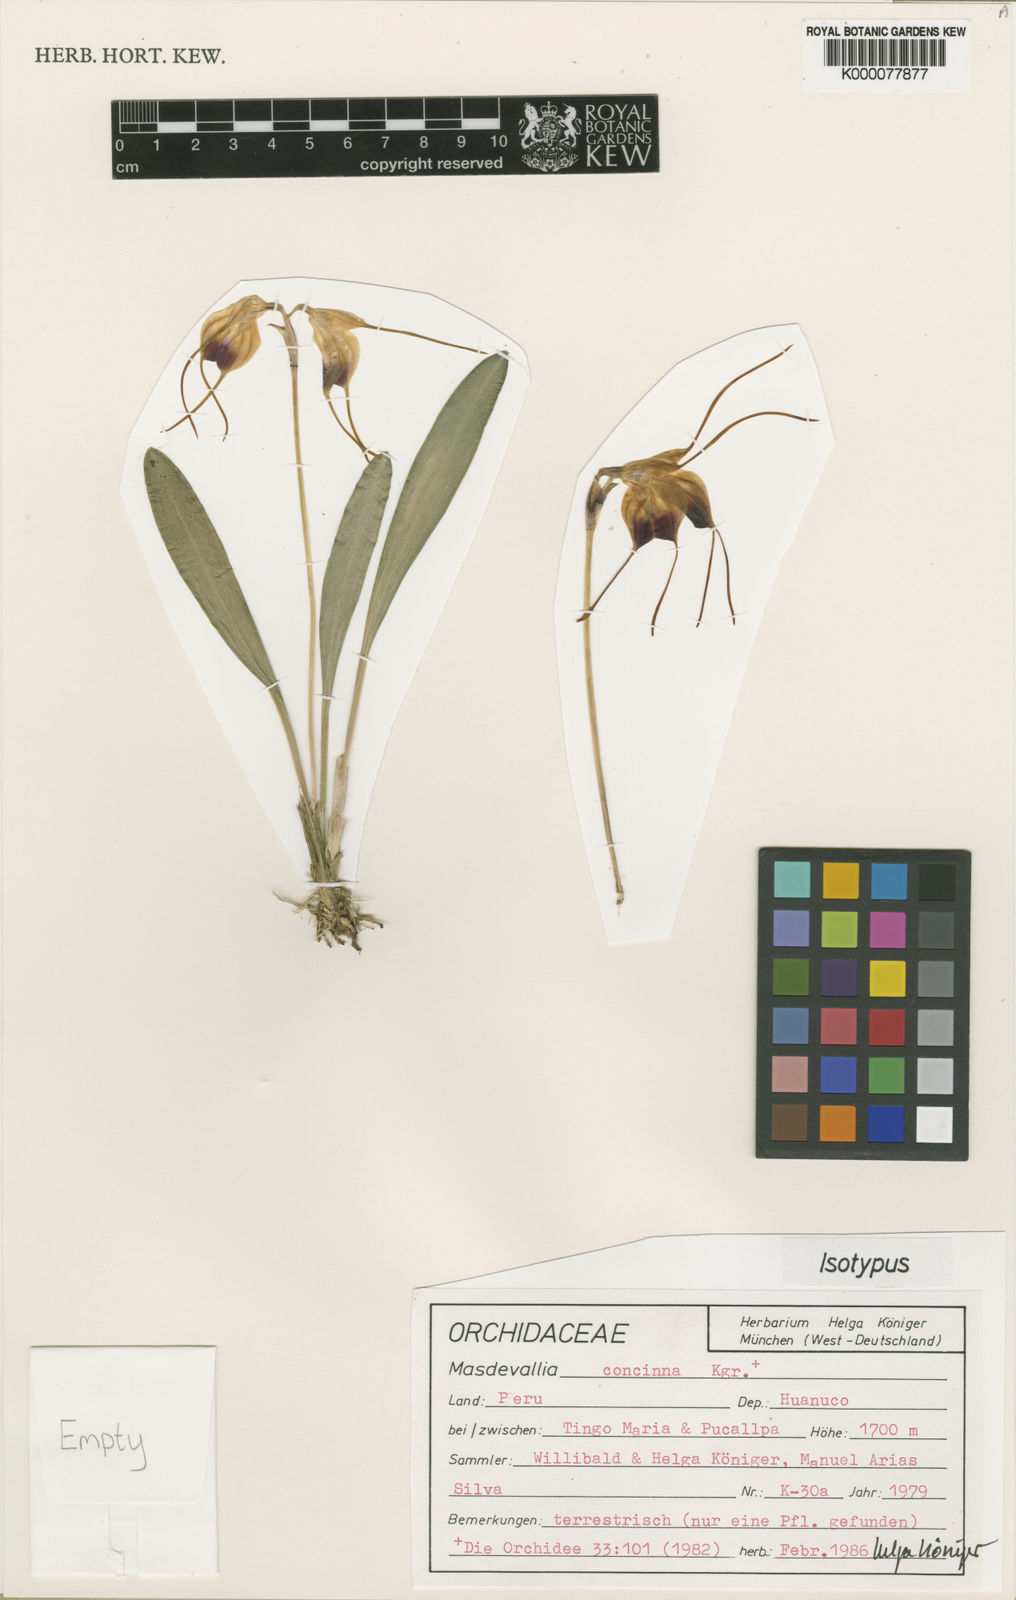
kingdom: Plantae
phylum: Tracheophyta
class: Liliopsida
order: Asparagales
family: Orchidaceae
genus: Masdevallia
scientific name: Masdevallia
